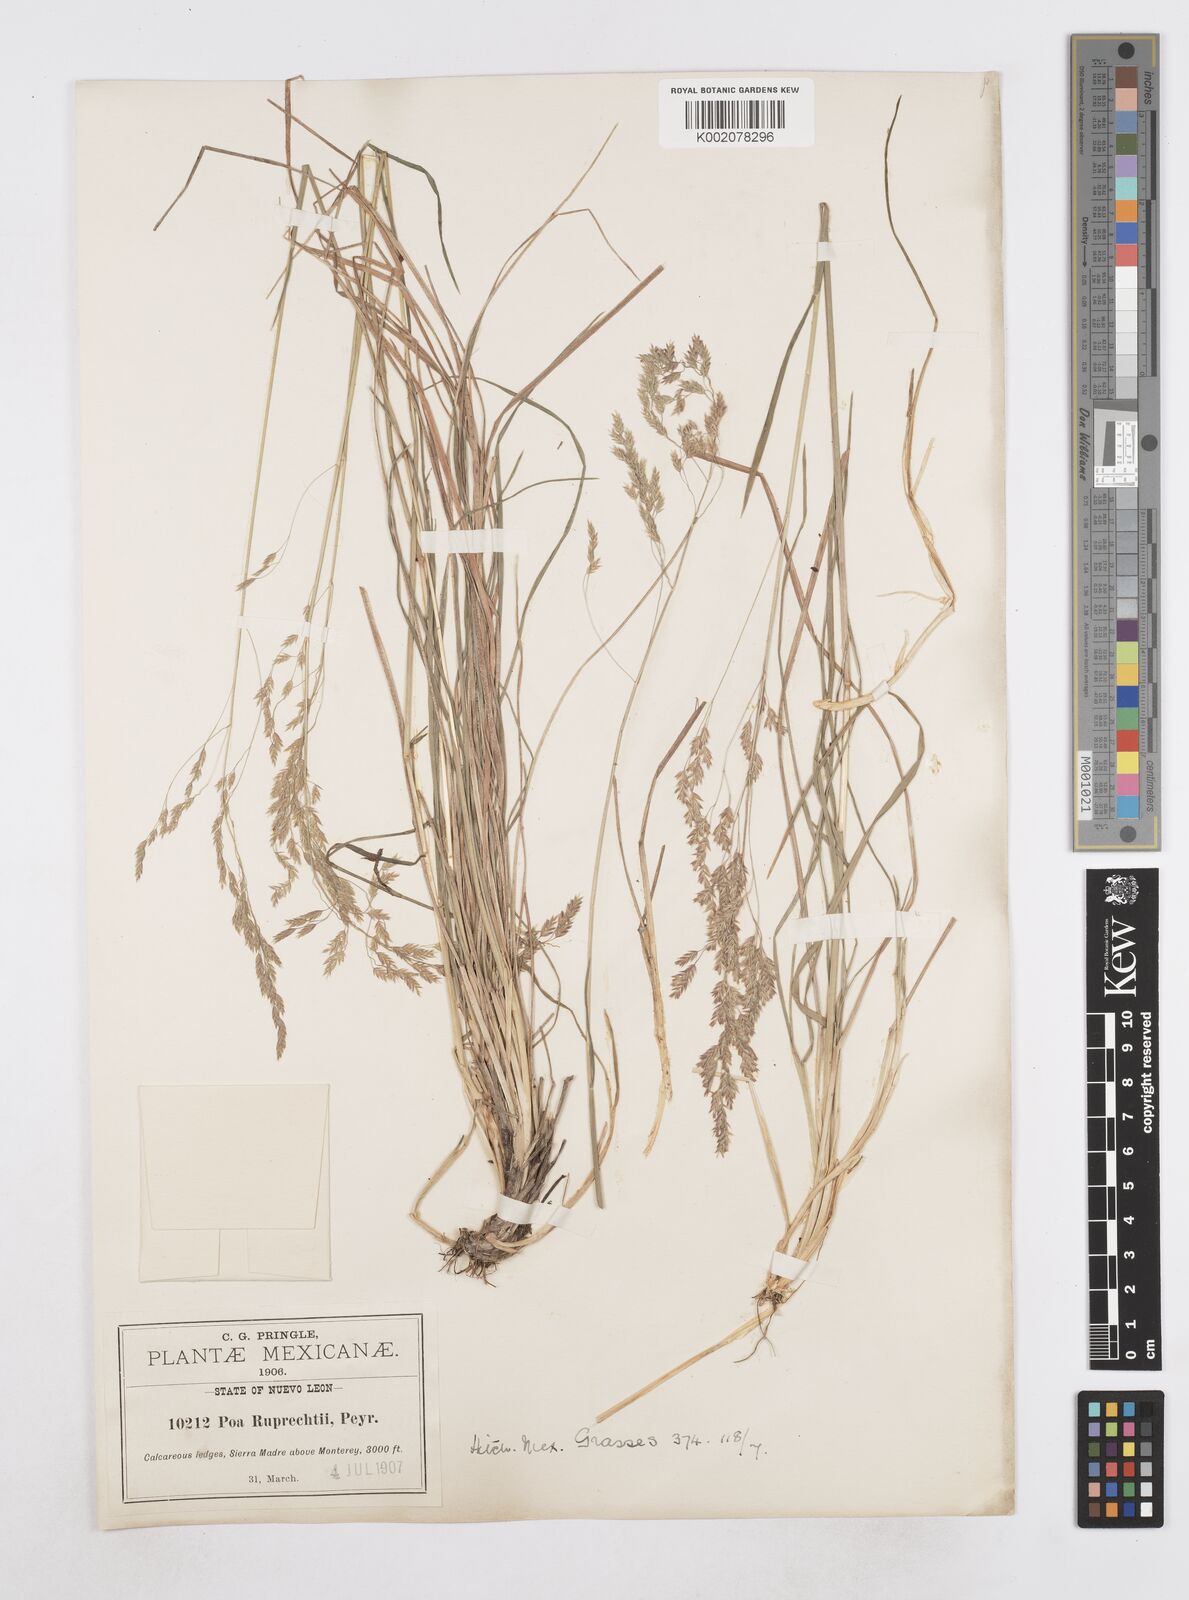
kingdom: Plantae
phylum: Tracheophyta
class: Liliopsida
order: Poales
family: Poaceae
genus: Poa
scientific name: Poa ruprechtii
